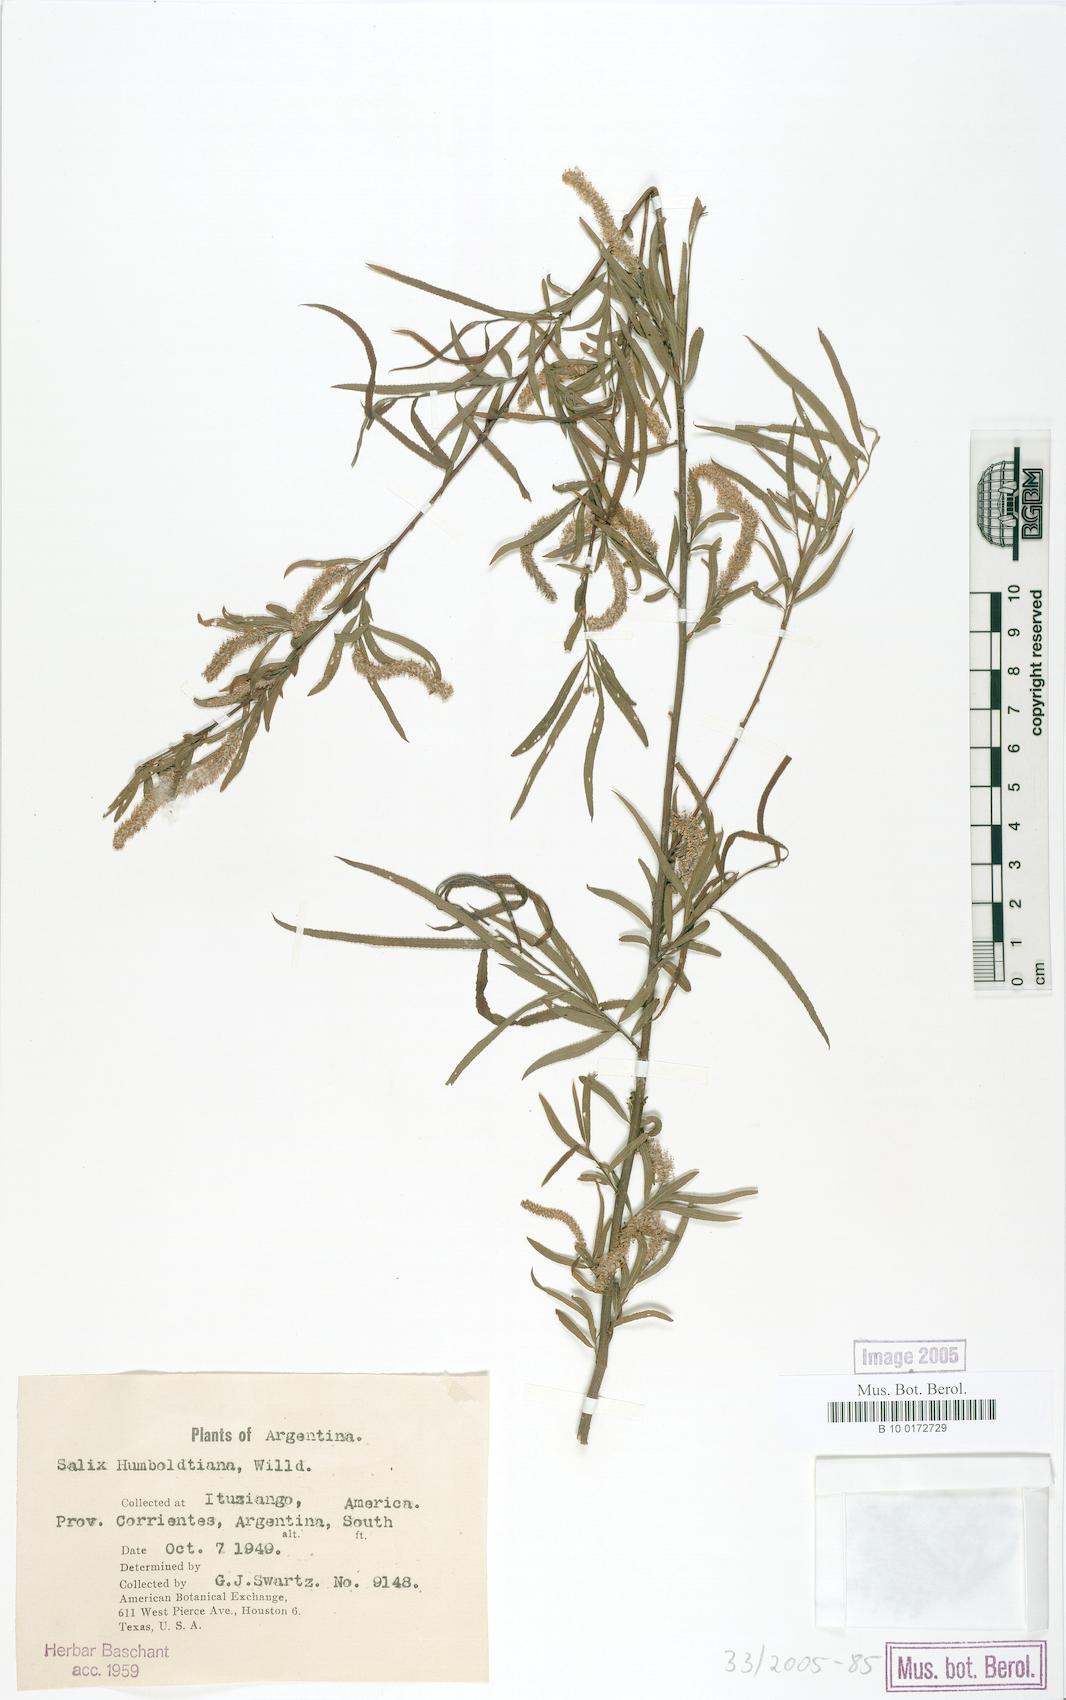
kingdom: Plantae
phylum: Tracheophyta
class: Magnoliopsida
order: Malpighiales
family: Salicaceae
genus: Salix
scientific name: Salix humboldtiana
